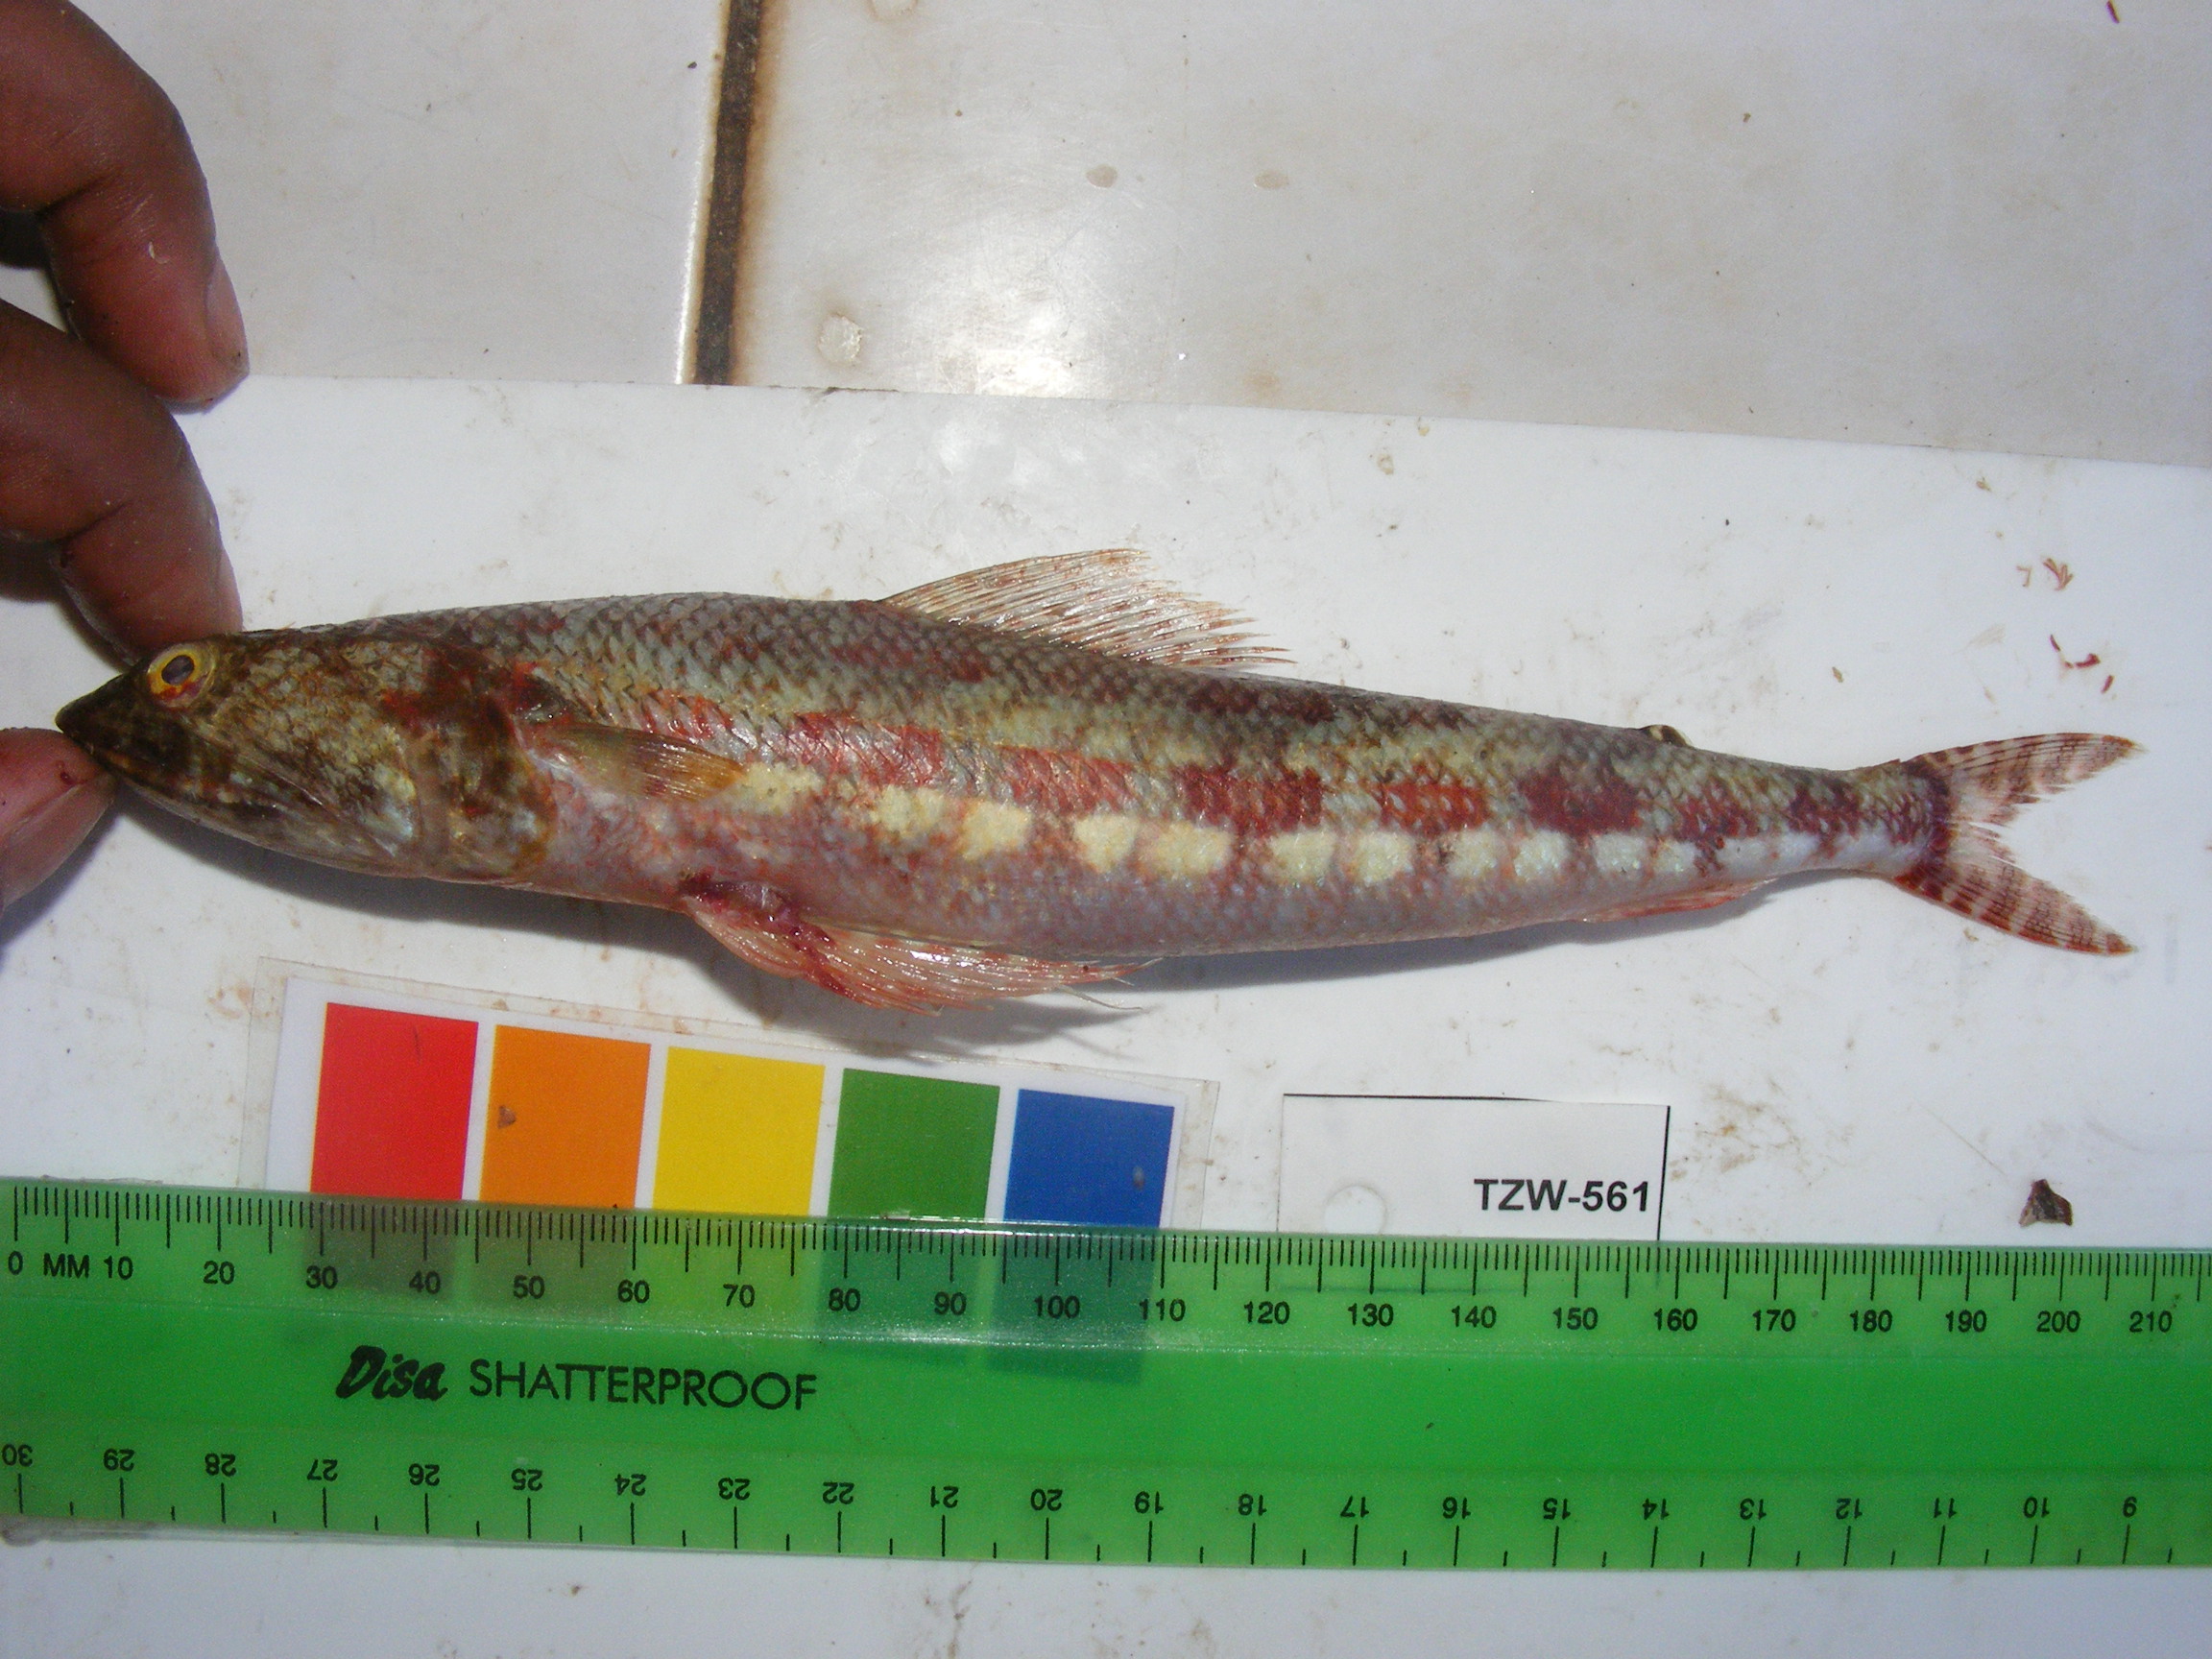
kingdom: Animalia
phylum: Chordata
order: Aulopiformes
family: Synodontidae
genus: Synodus
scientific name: Synodus variegatus
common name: Variegated lizardfish
